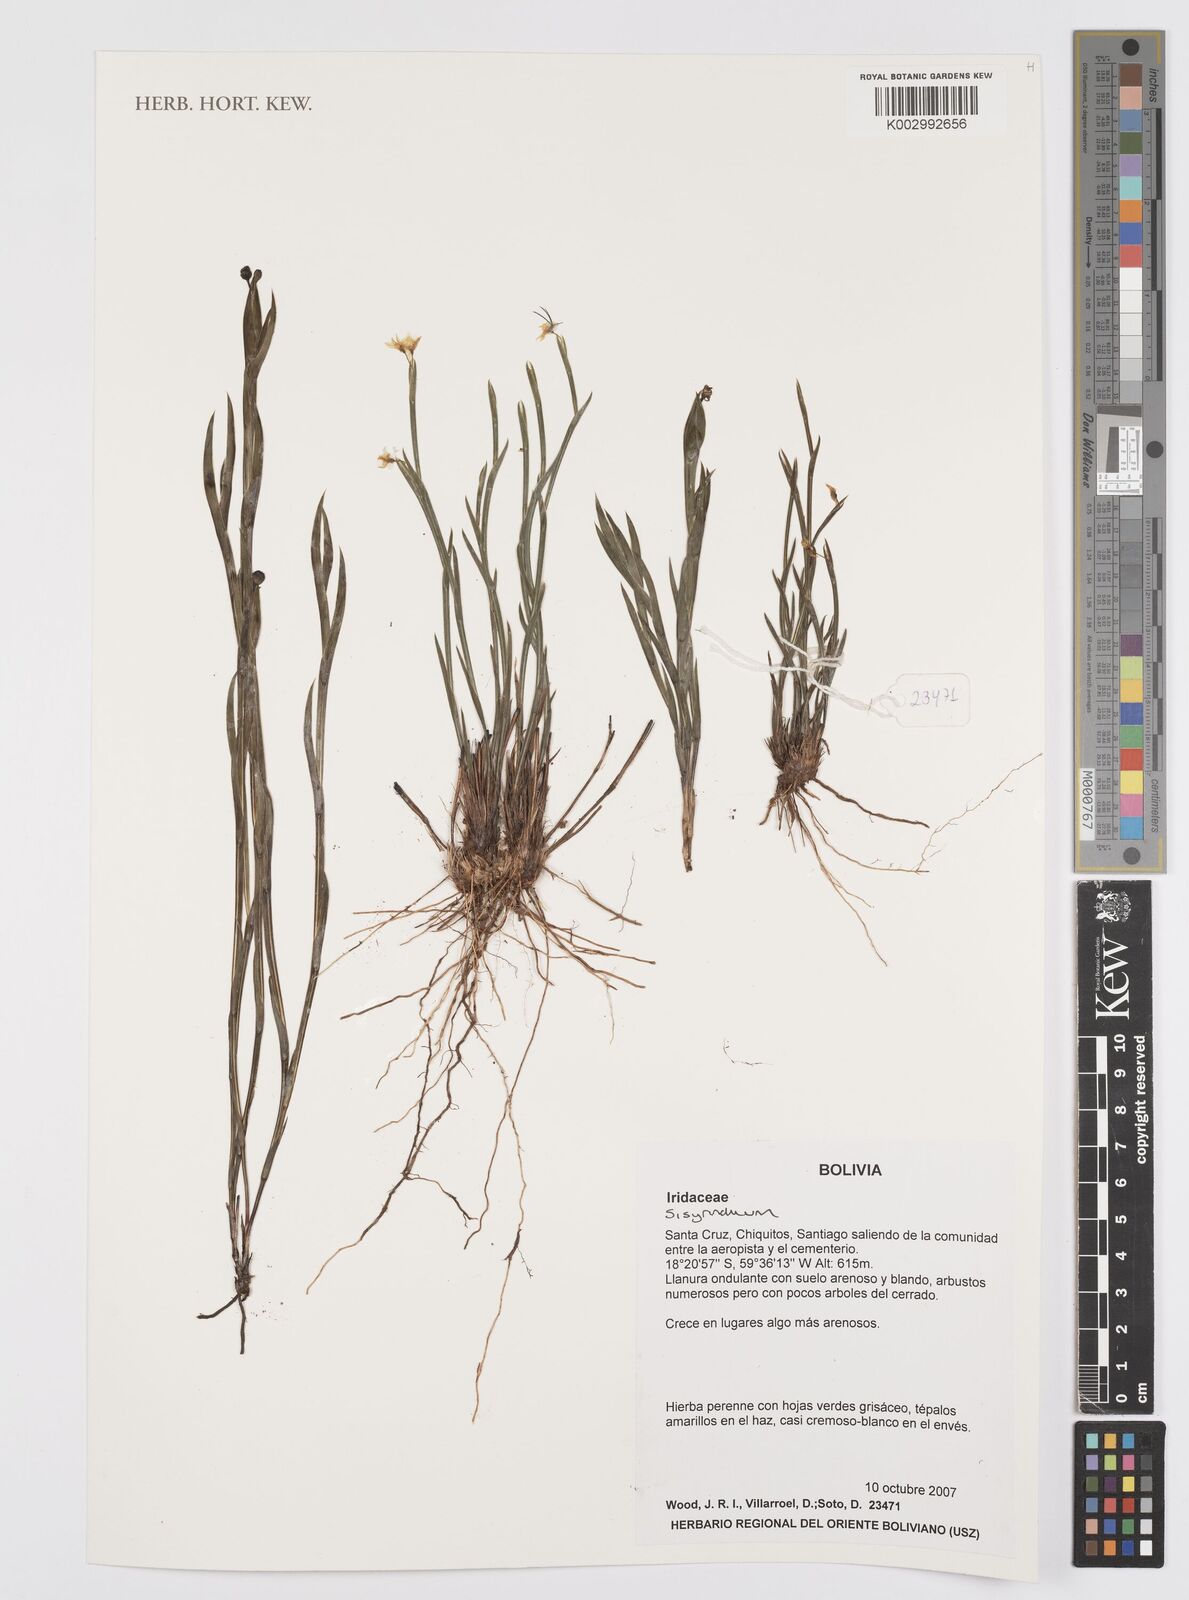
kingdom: Plantae
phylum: Tracheophyta
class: Liliopsida
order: Asparagales
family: Iridaceae
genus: Sisyrinchium
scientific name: Sisyrinchium
